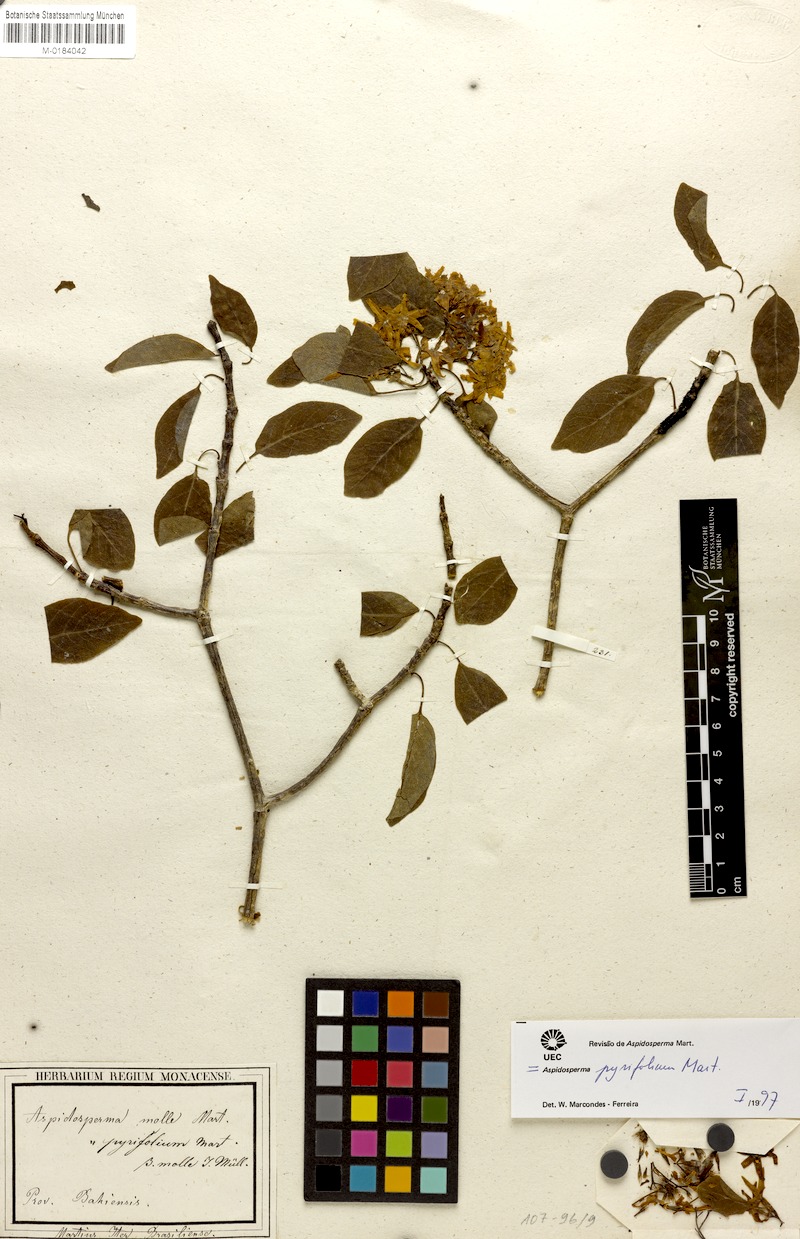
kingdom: Plantae
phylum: Tracheophyta
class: Magnoliopsida
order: Gentianales
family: Apocynaceae
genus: Aspidosperma
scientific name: Aspidosperma pyrifolium
